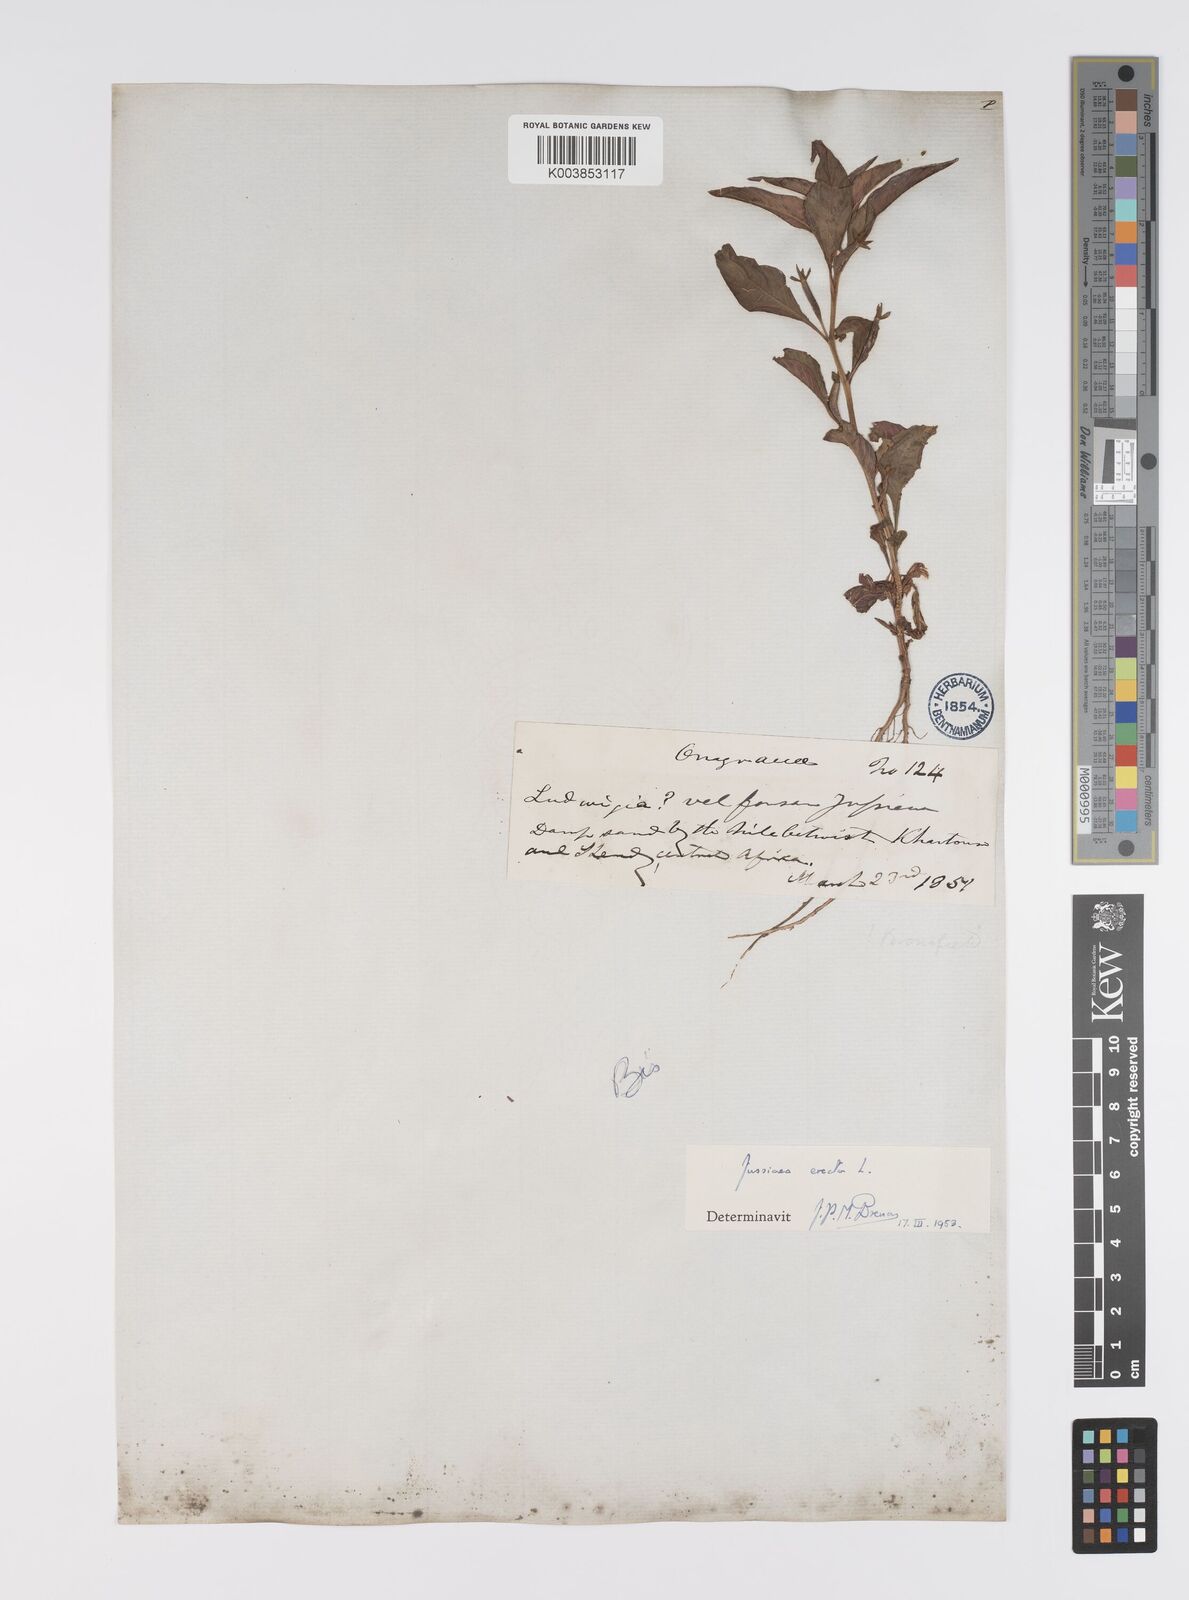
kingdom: Plantae
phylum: Tracheophyta
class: Magnoliopsida
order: Myrtales
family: Onagraceae
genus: Ludwigia
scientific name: Ludwigia erecta
